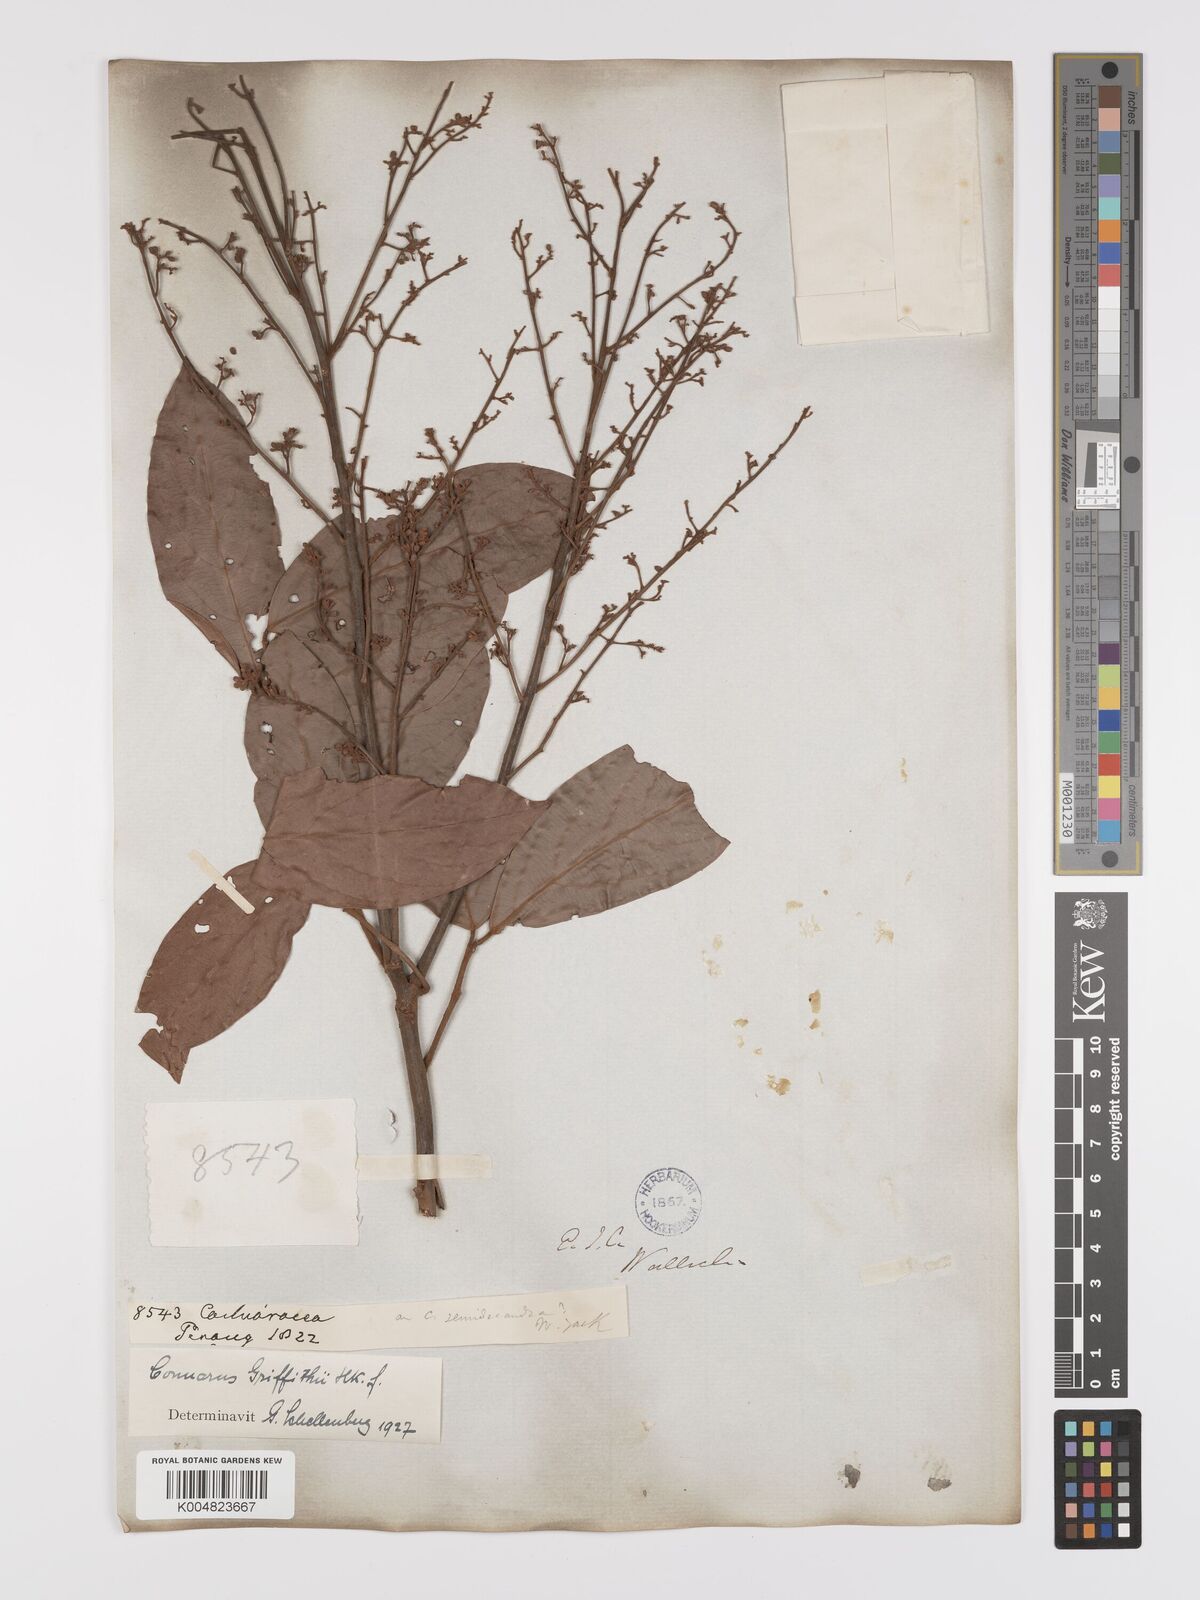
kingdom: Plantae
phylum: Tracheophyta
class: Magnoliopsida
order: Oxalidales
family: Connaraceae
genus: Connarus
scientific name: Connarus semidecandrus
